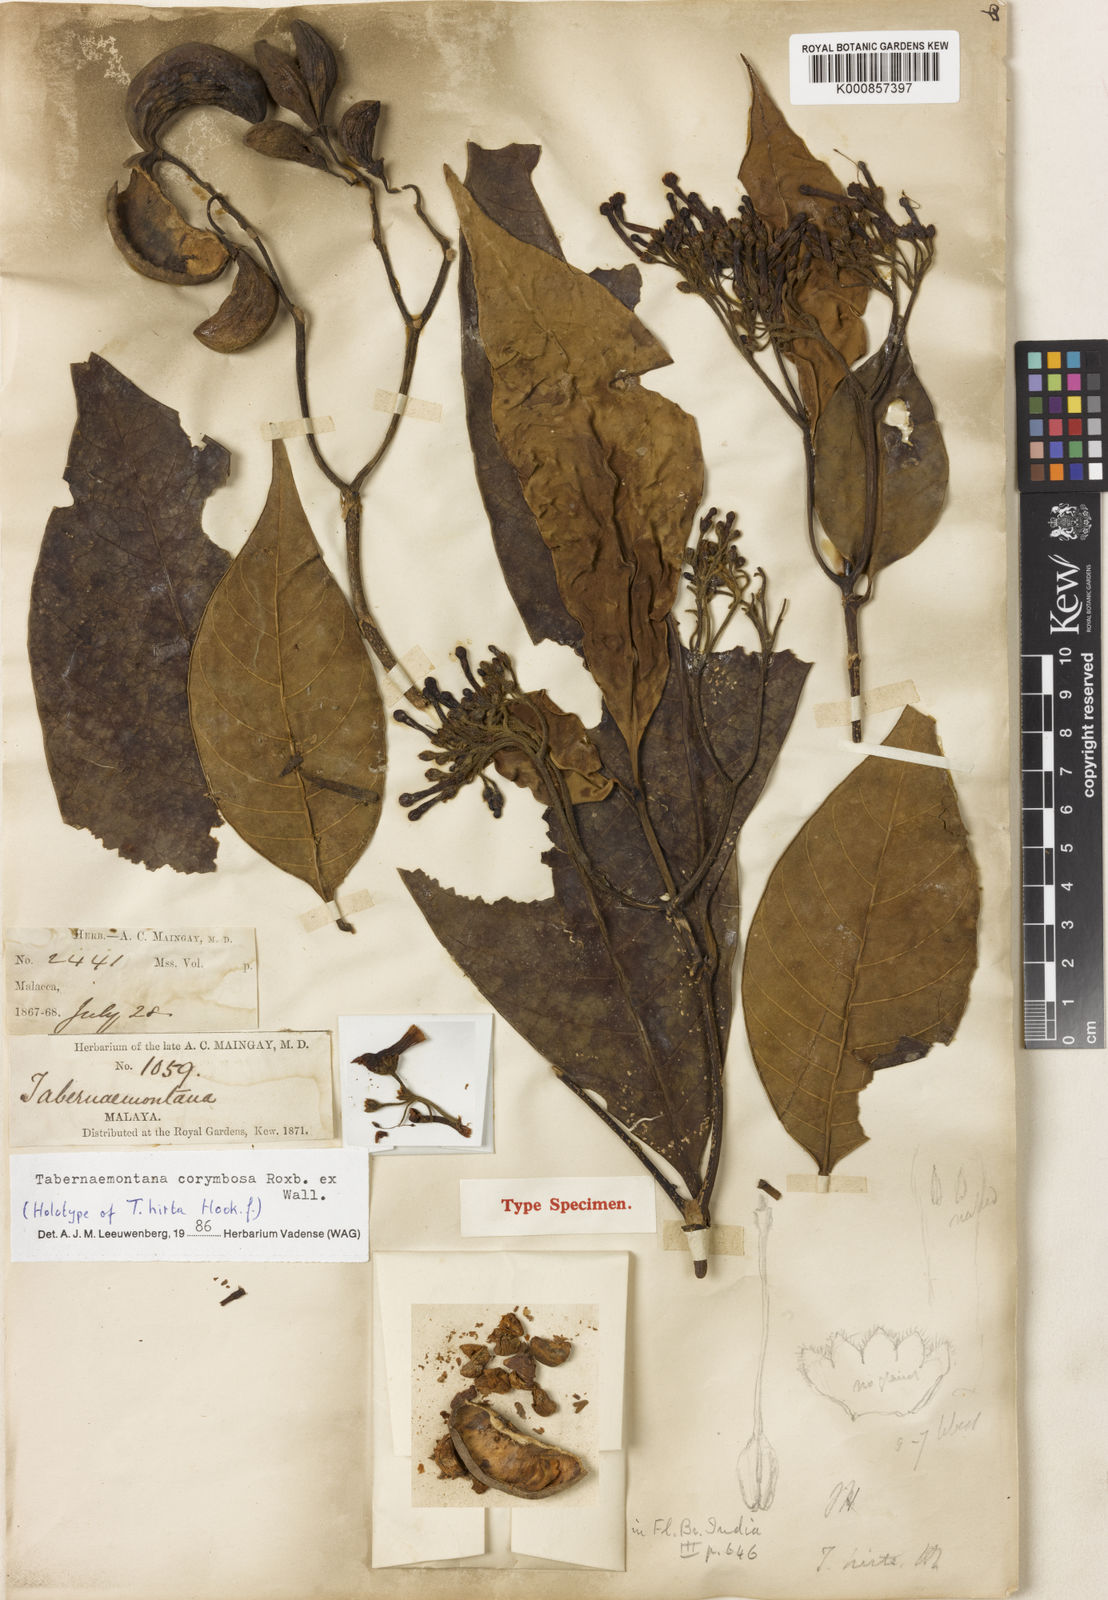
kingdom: Plantae
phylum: Tracheophyta
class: Magnoliopsida
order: Gentianales
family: Apocynaceae
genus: Tabernaemontana
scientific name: Tabernaemontana corymbosa
